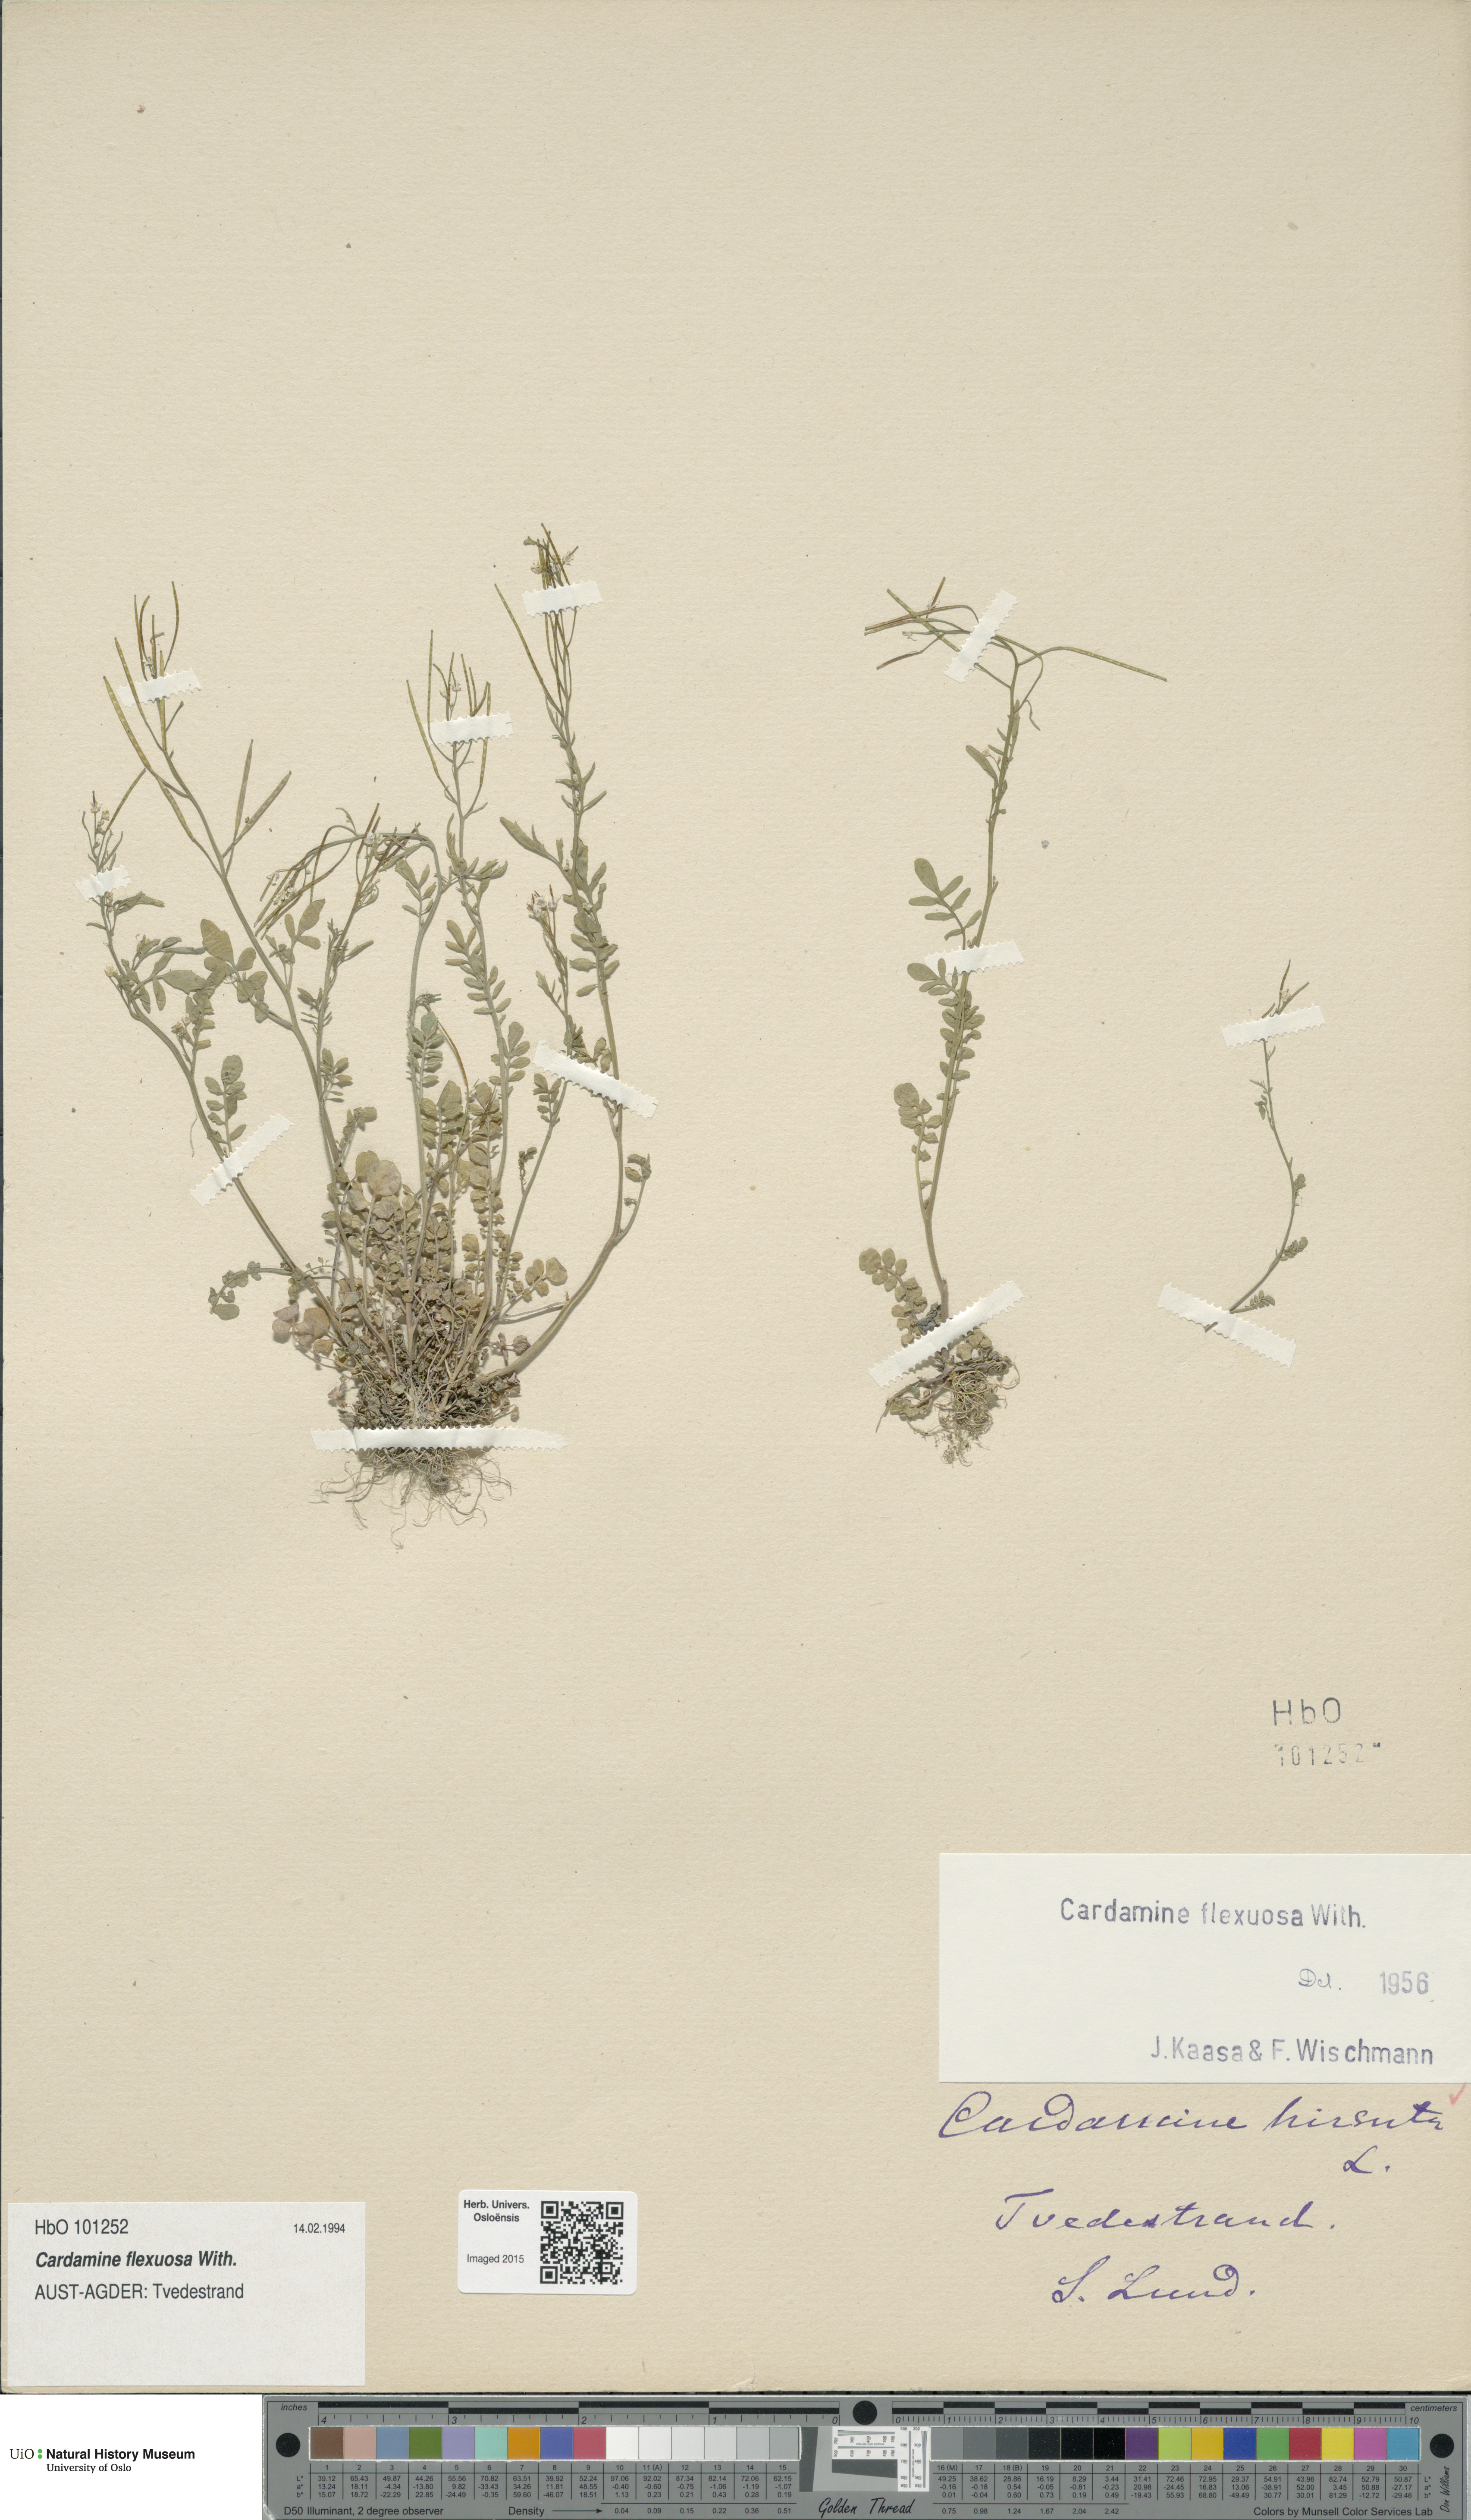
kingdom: Plantae
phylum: Tracheophyta
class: Magnoliopsida
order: Brassicales
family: Brassicaceae
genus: Cardamine
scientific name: Cardamine flexuosa
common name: Woodland bittercress
